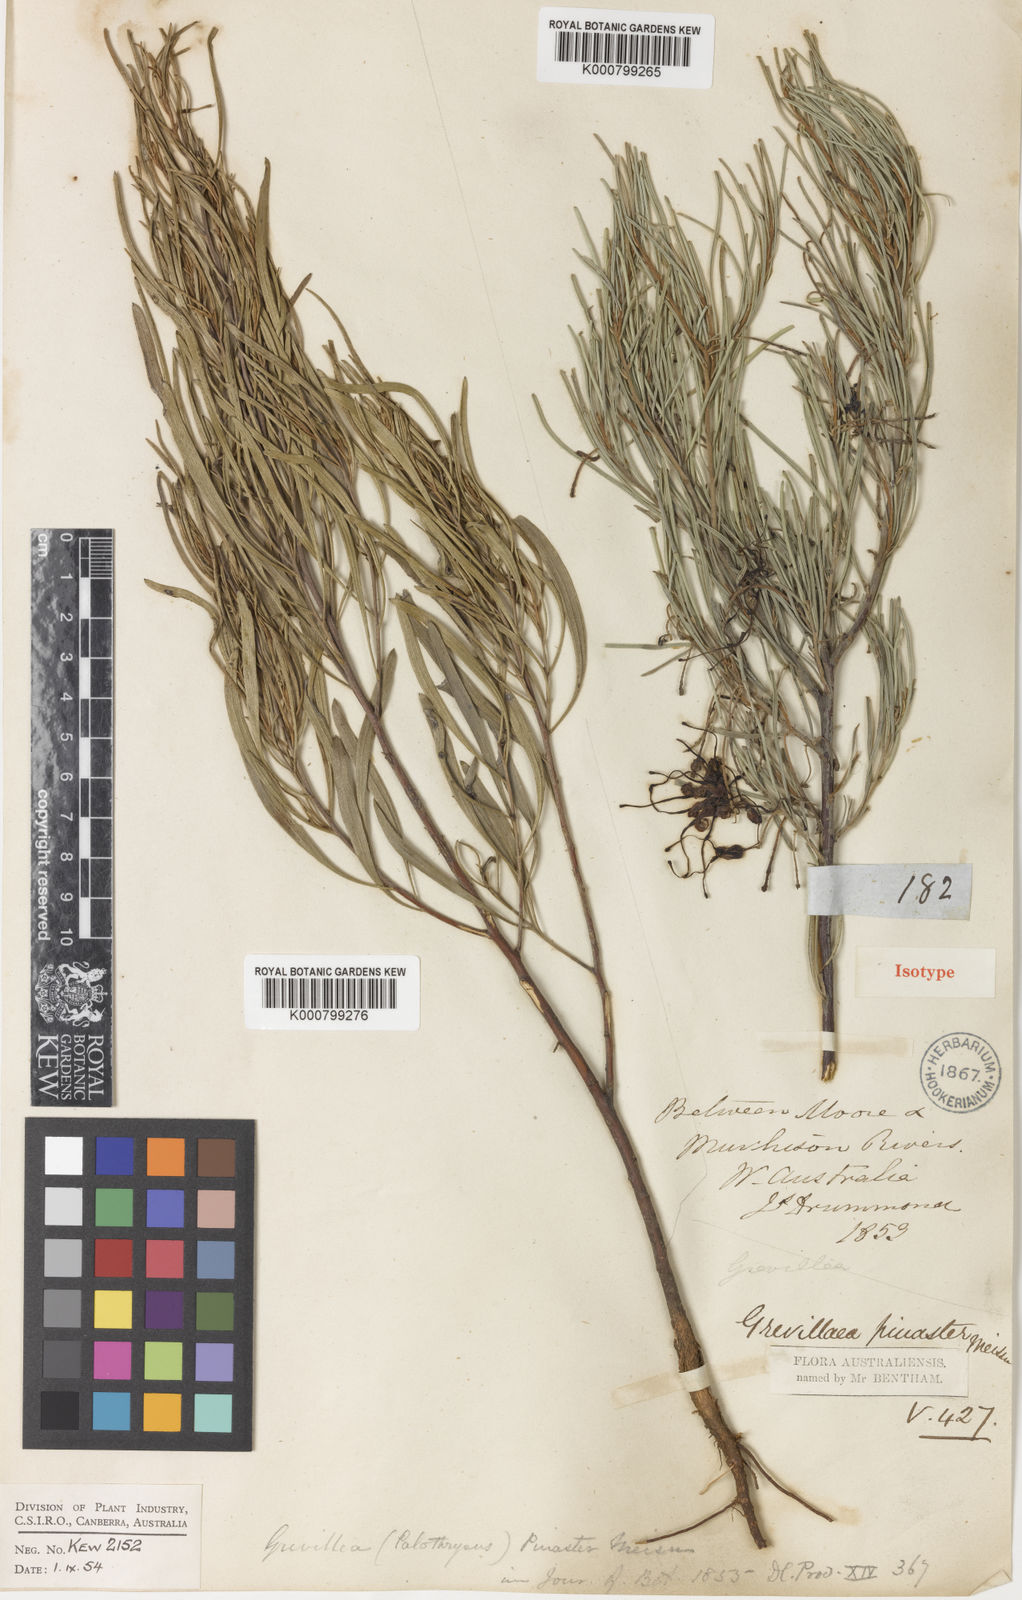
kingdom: Plantae
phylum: Tracheophyta
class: Magnoliopsida
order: Proteales
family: Proteaceae
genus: Grevillea
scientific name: Grevillea pinaster
